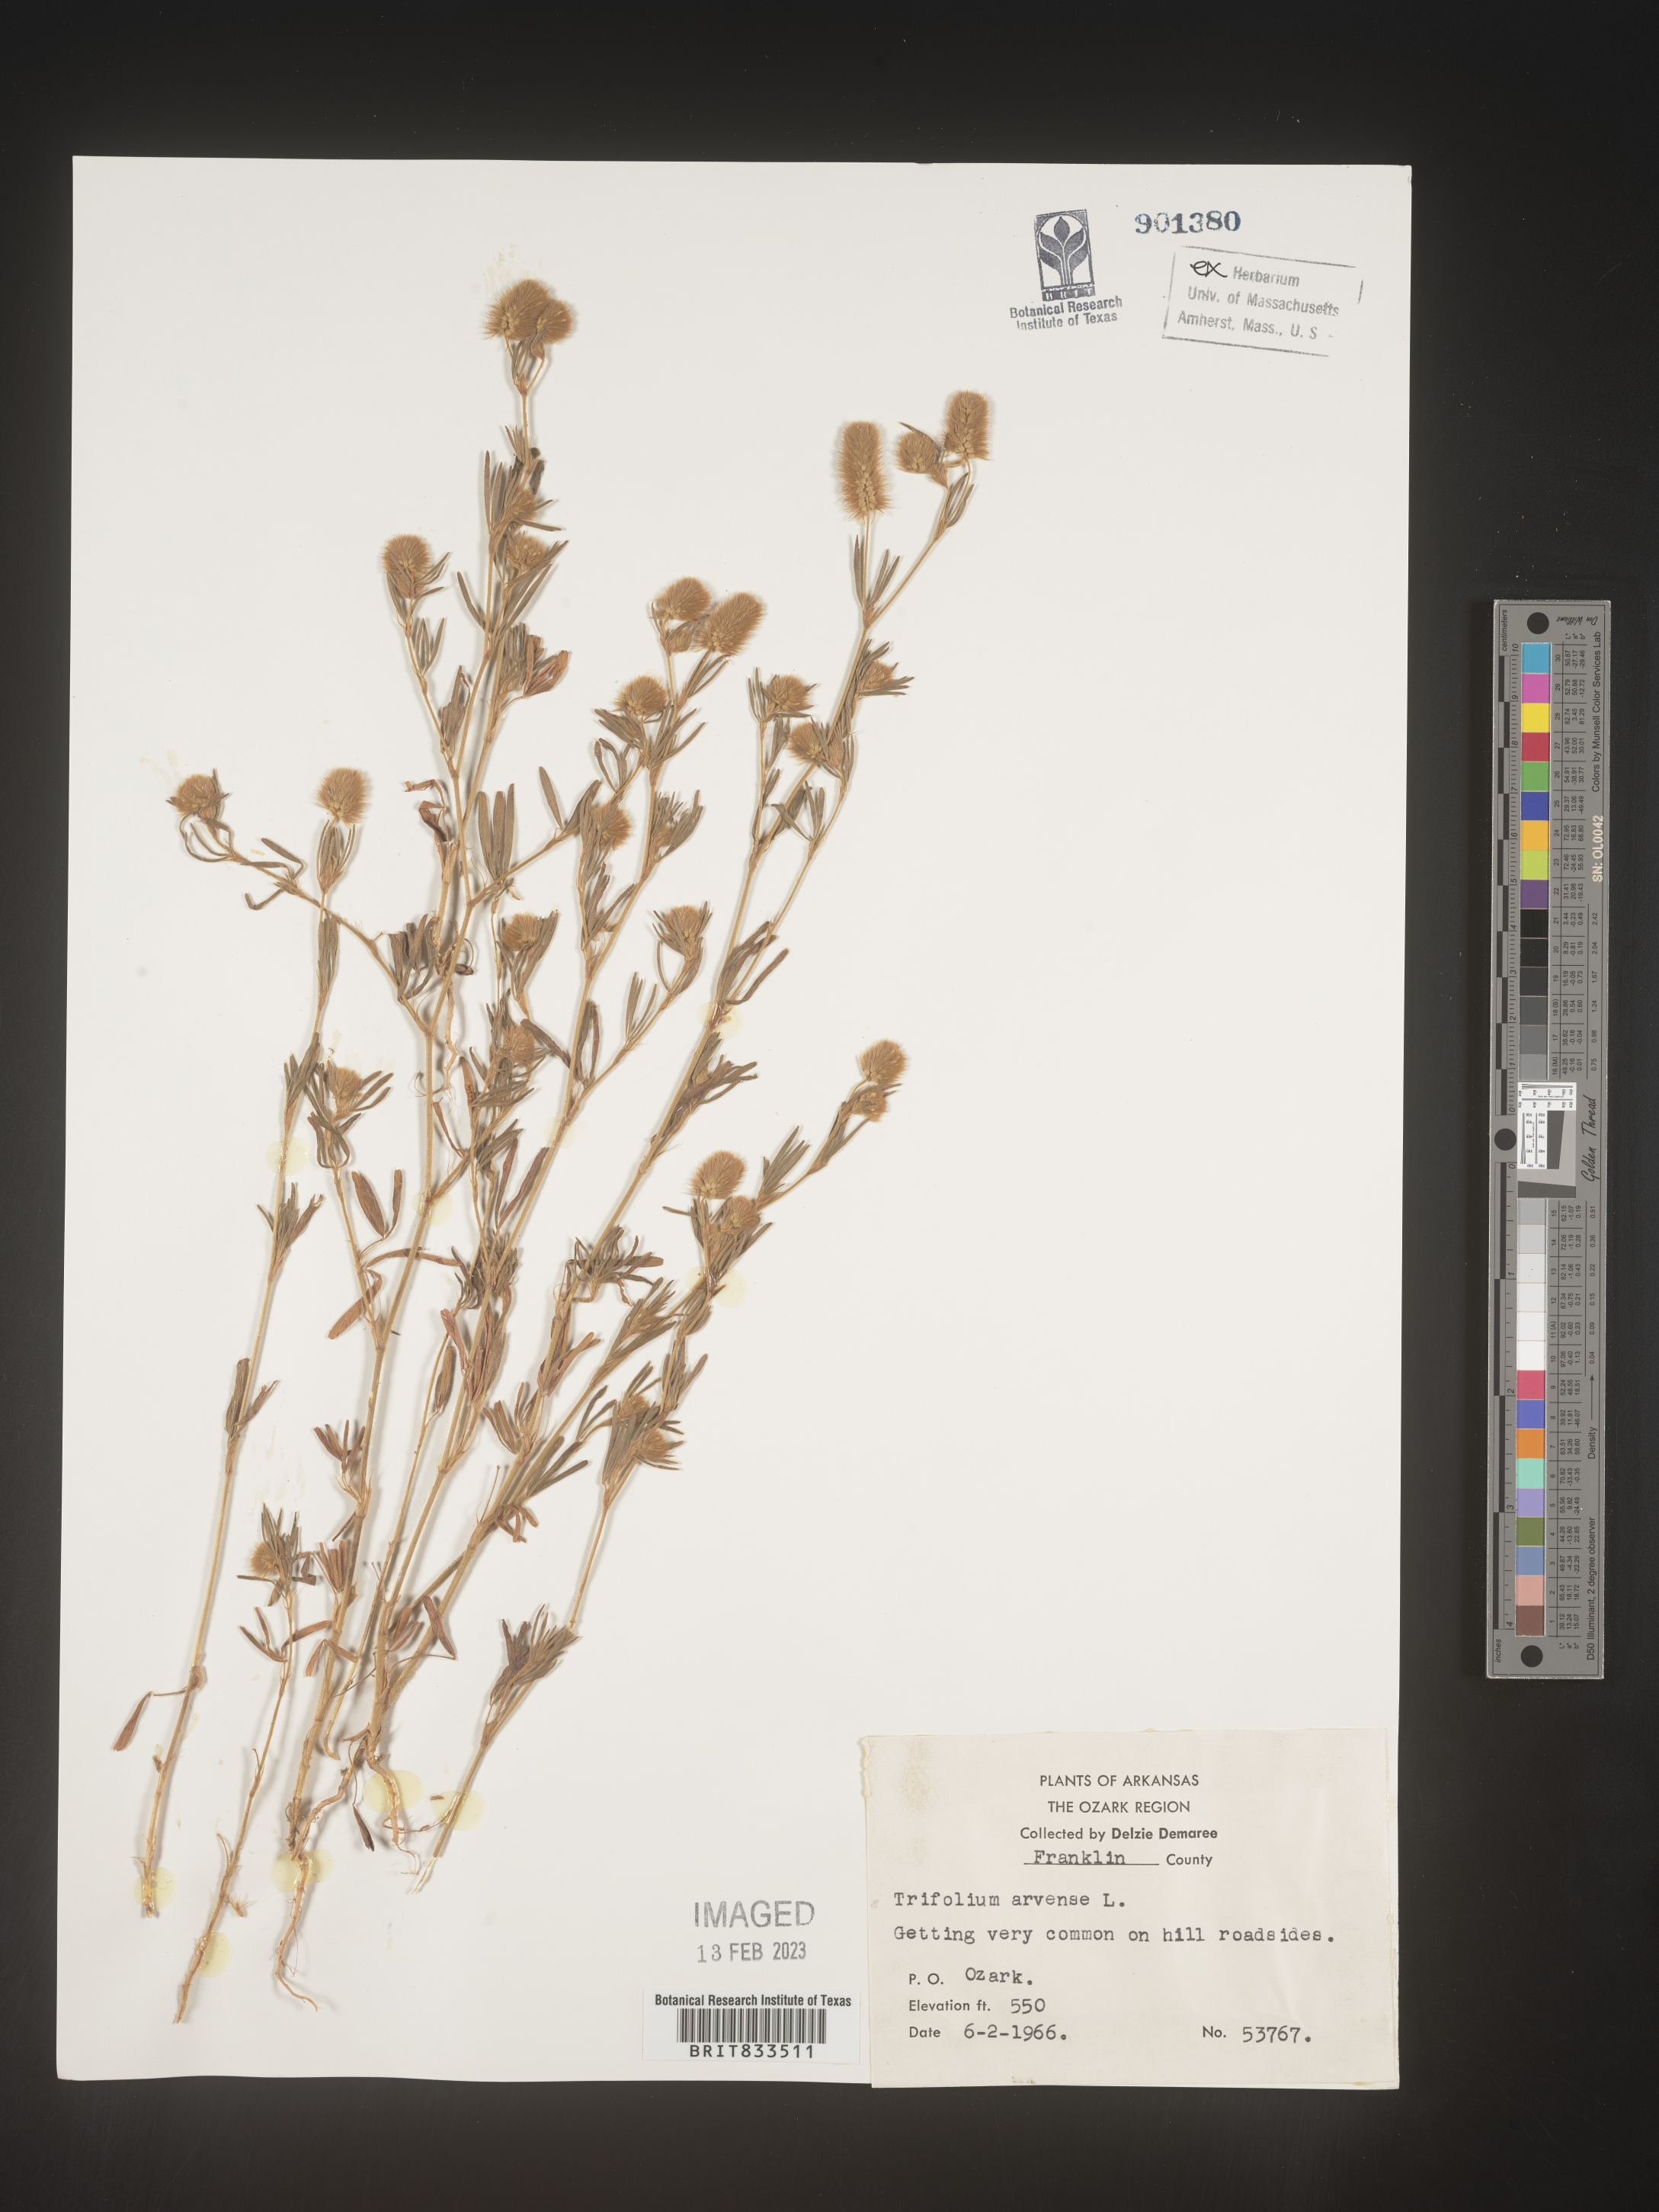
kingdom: Plantae
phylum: Tracheophyta
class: Magnoliopsida
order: Fabales
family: Fabaceae
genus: Trifolium
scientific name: Trifolium arvense
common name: Hare's-foot clover
